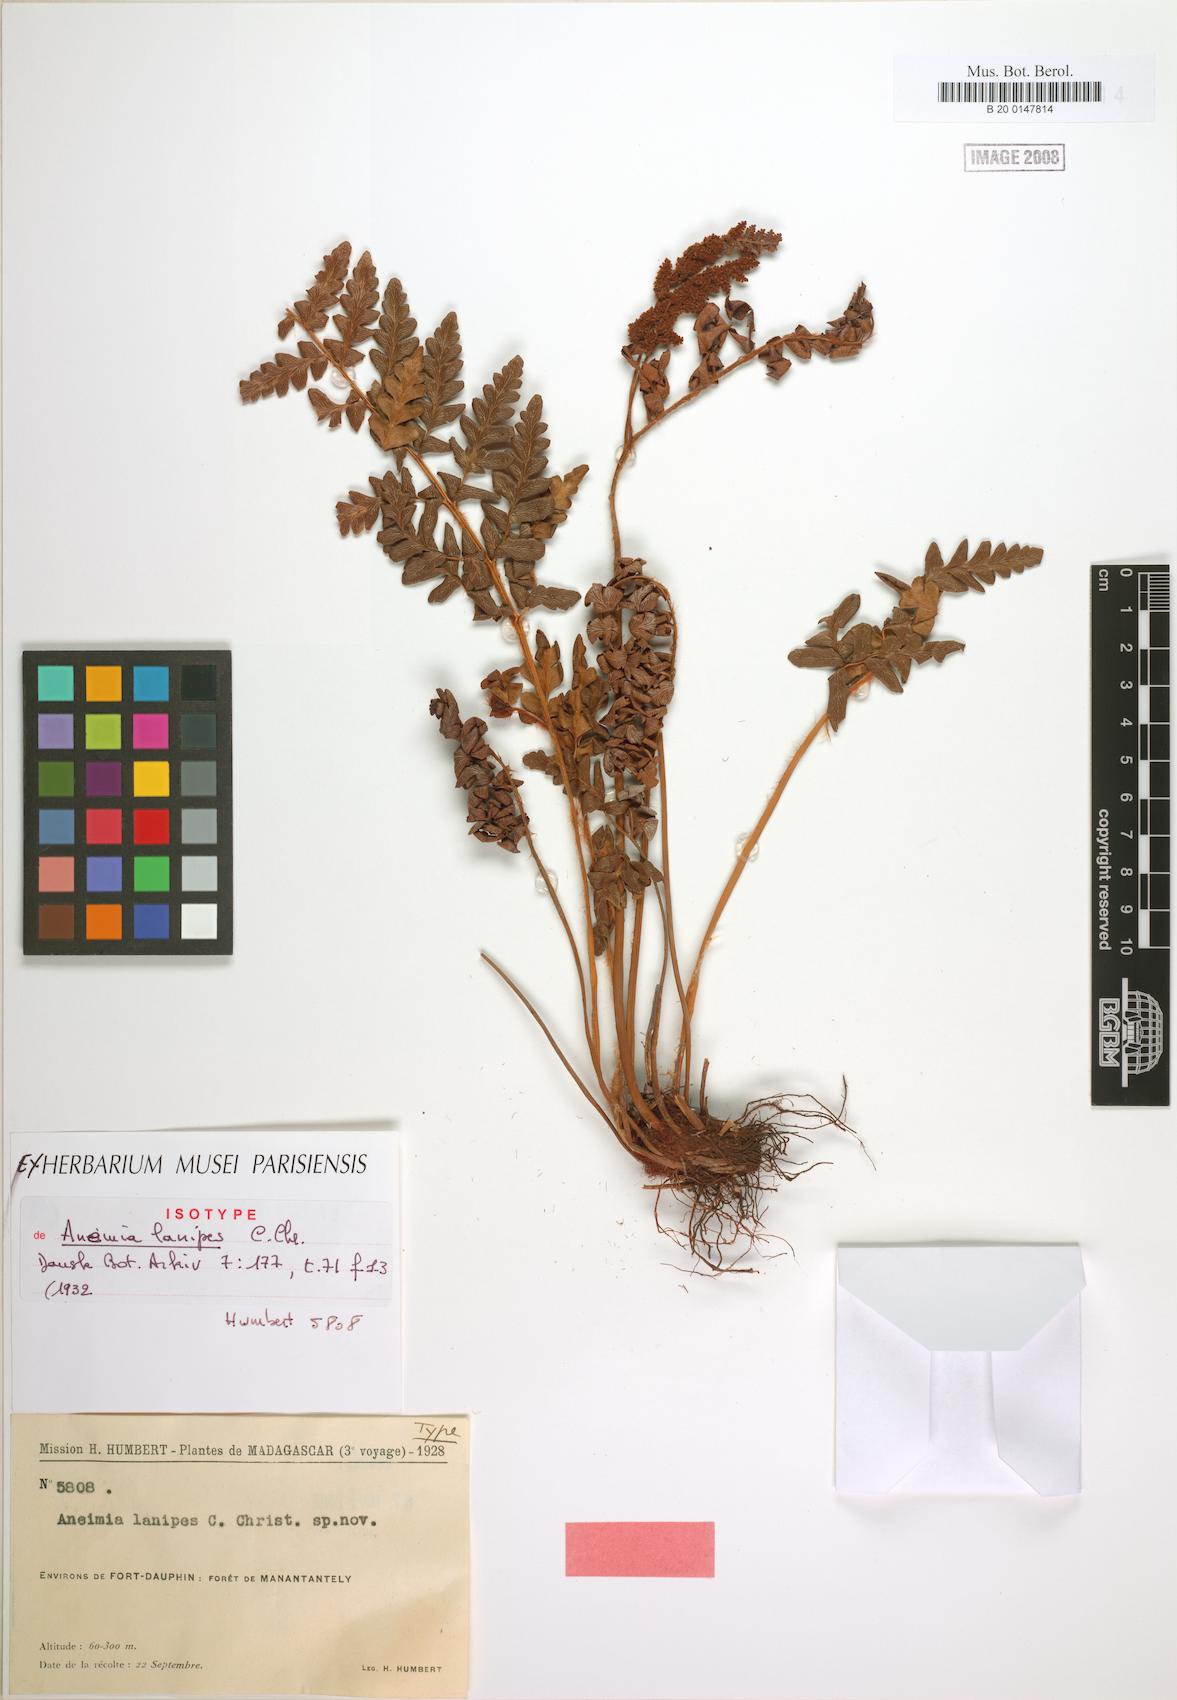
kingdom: Plantae
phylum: Tracheophyta
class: Polypodiopsida
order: Schizaeales
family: Anemiaceae
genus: Anemia
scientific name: Anemia lanipes
